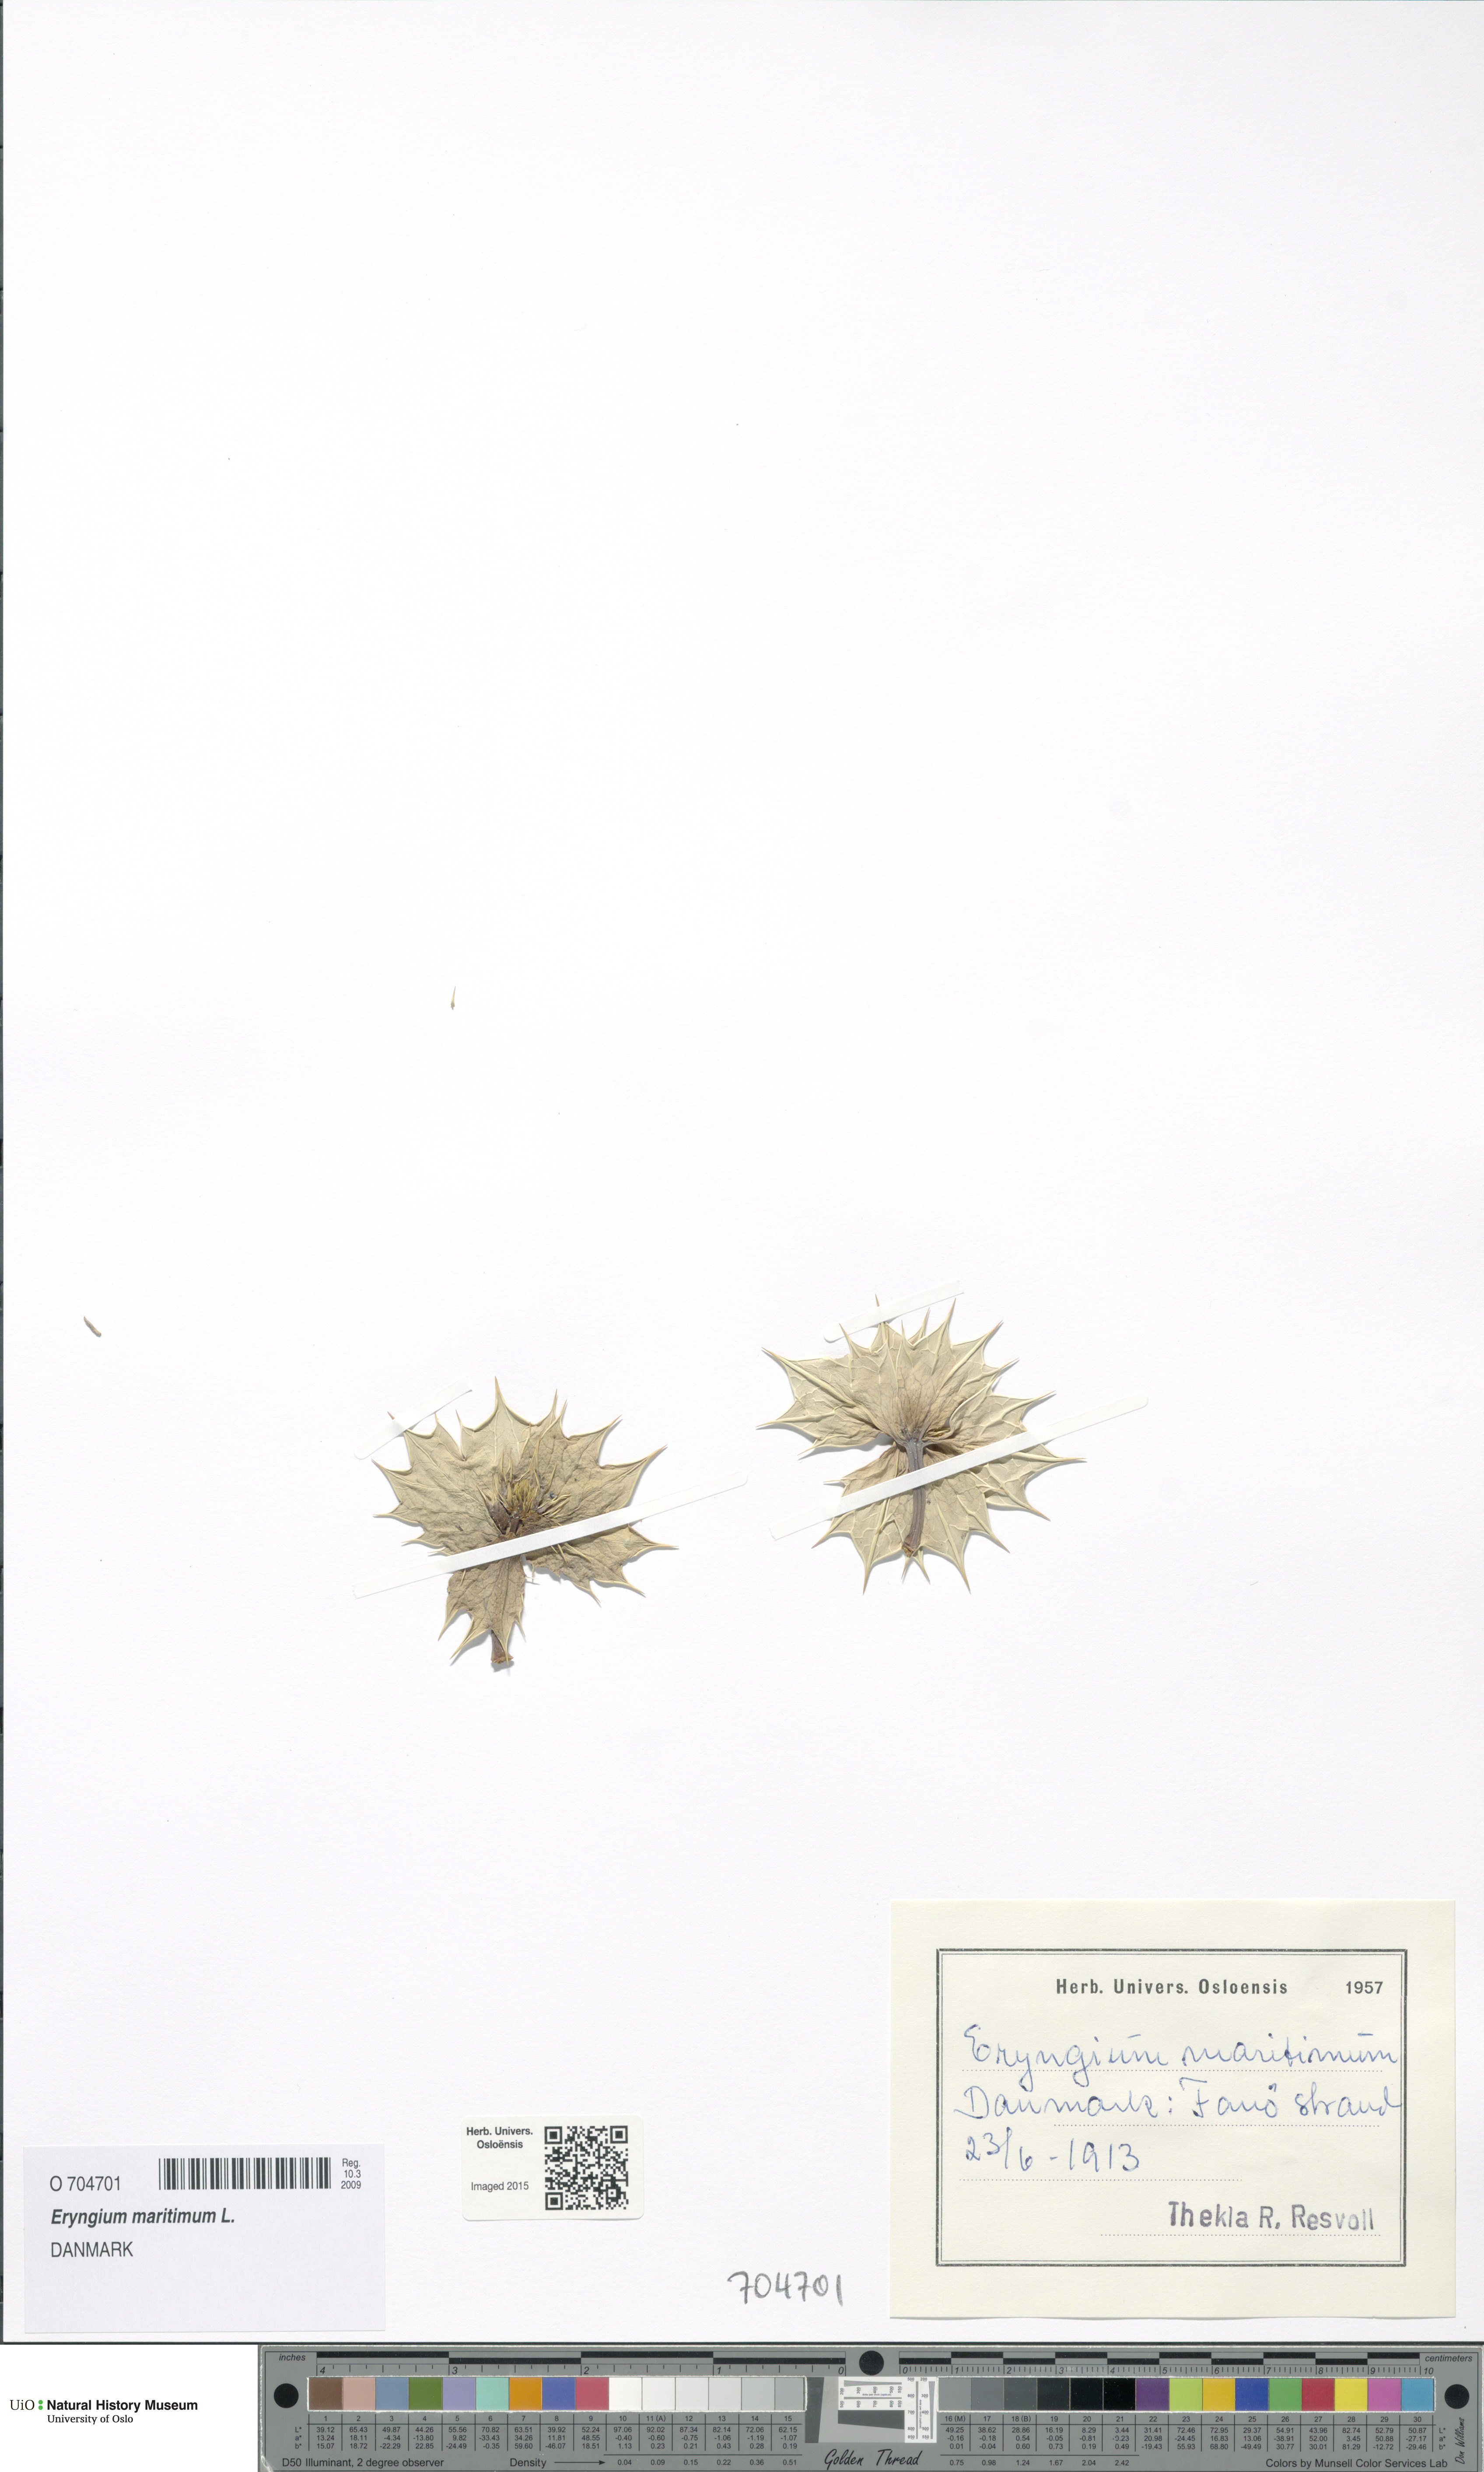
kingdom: Plantae
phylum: Tracheophyta
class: Magnoliopsida
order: Apiales
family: Apiaceae
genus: Eryngium
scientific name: Eryngium maritimum
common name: Sea-holly
